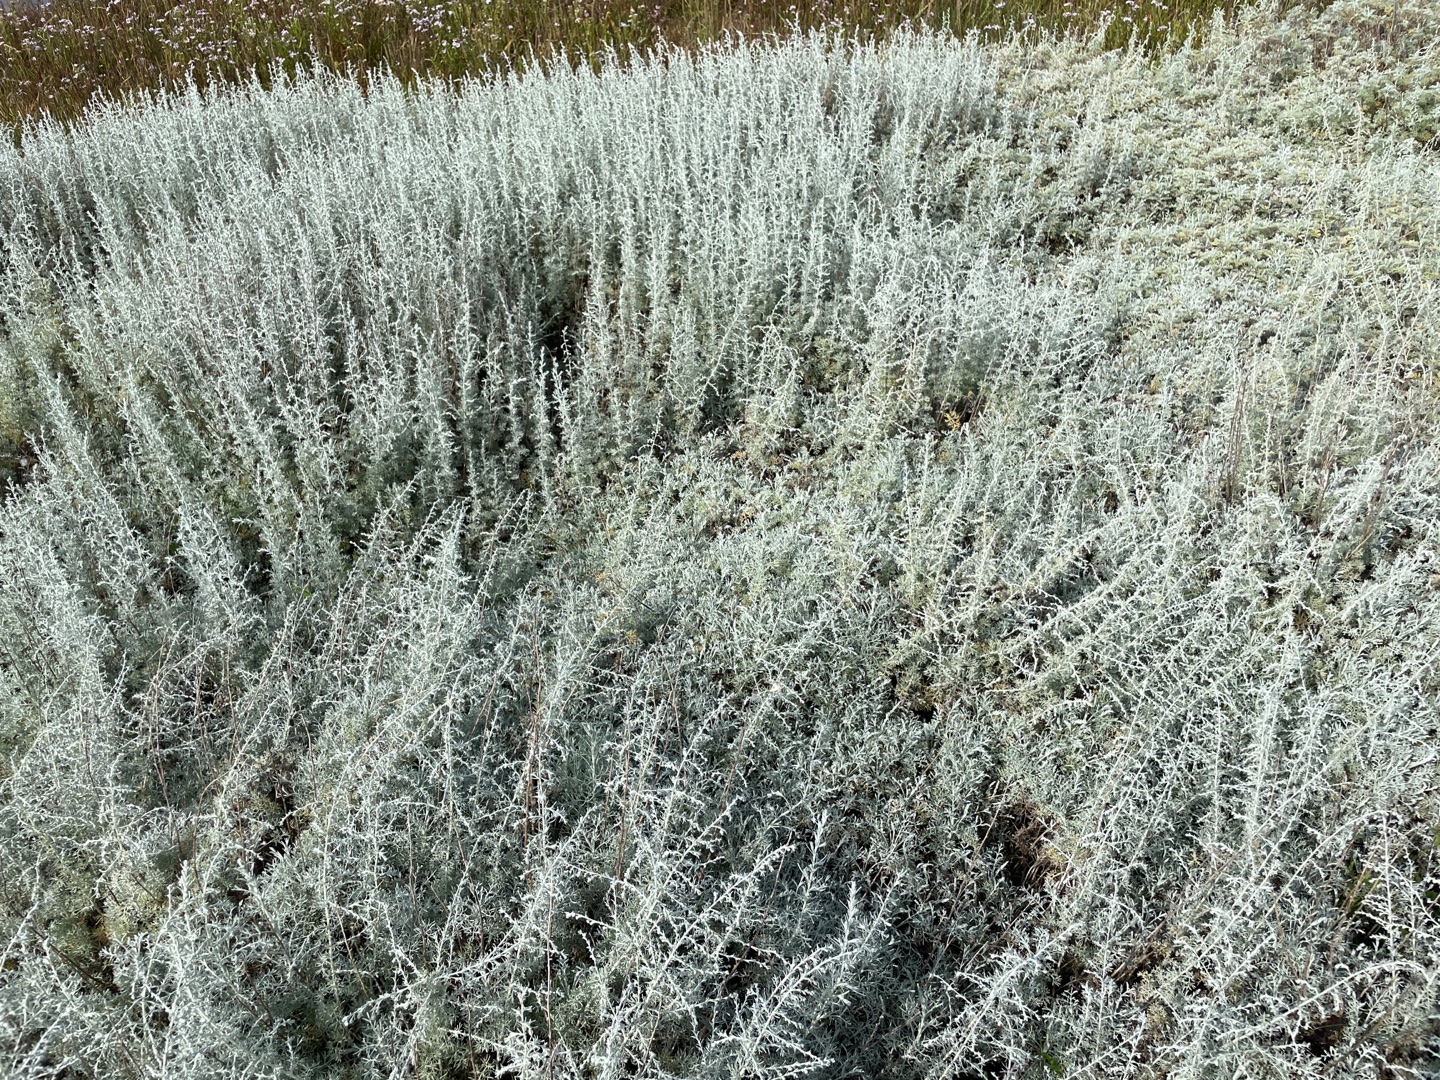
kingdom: Plantae
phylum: Tracheophyta
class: Magnoliopsida
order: Asterales
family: Asteraceae
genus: Artemisia
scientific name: Artemisia maritima
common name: Strandmalurt
